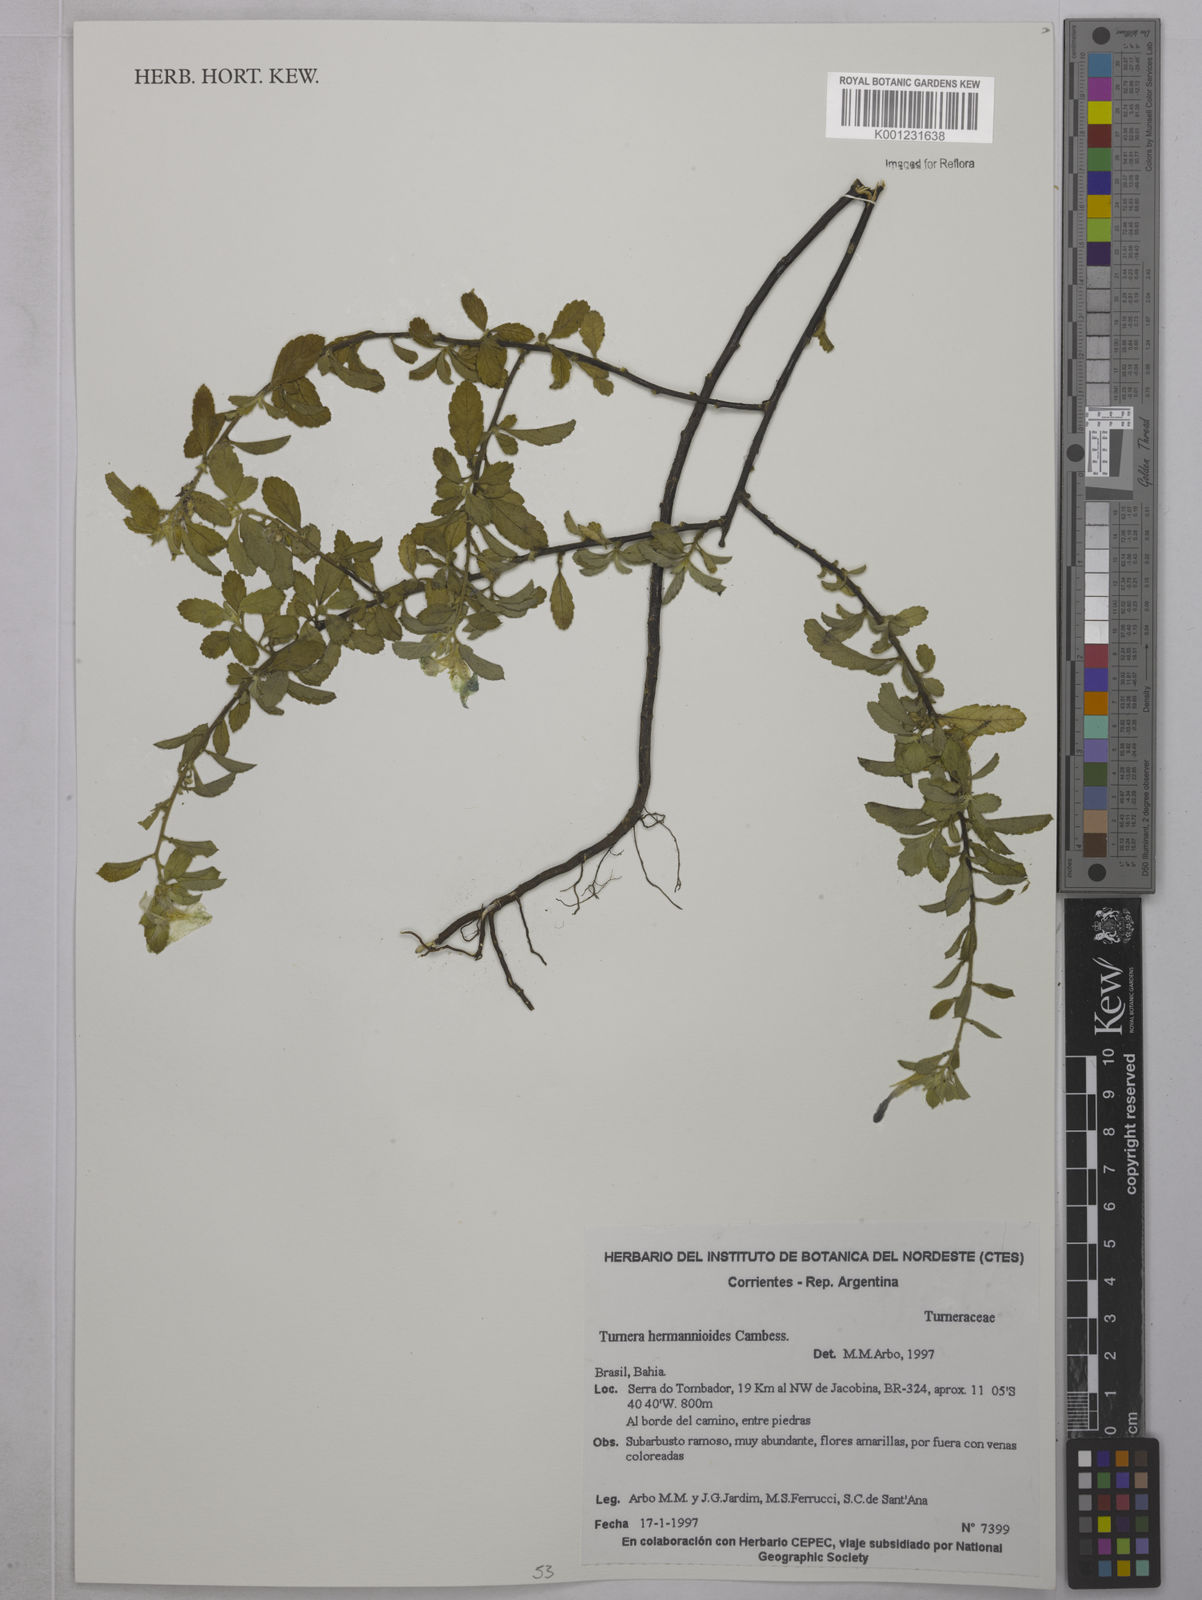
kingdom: Plantae
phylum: Tracheophyta
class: Magnoliopsida
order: Malpighiales
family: Turneraceae
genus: Turnera
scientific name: Turnera hermannioides
